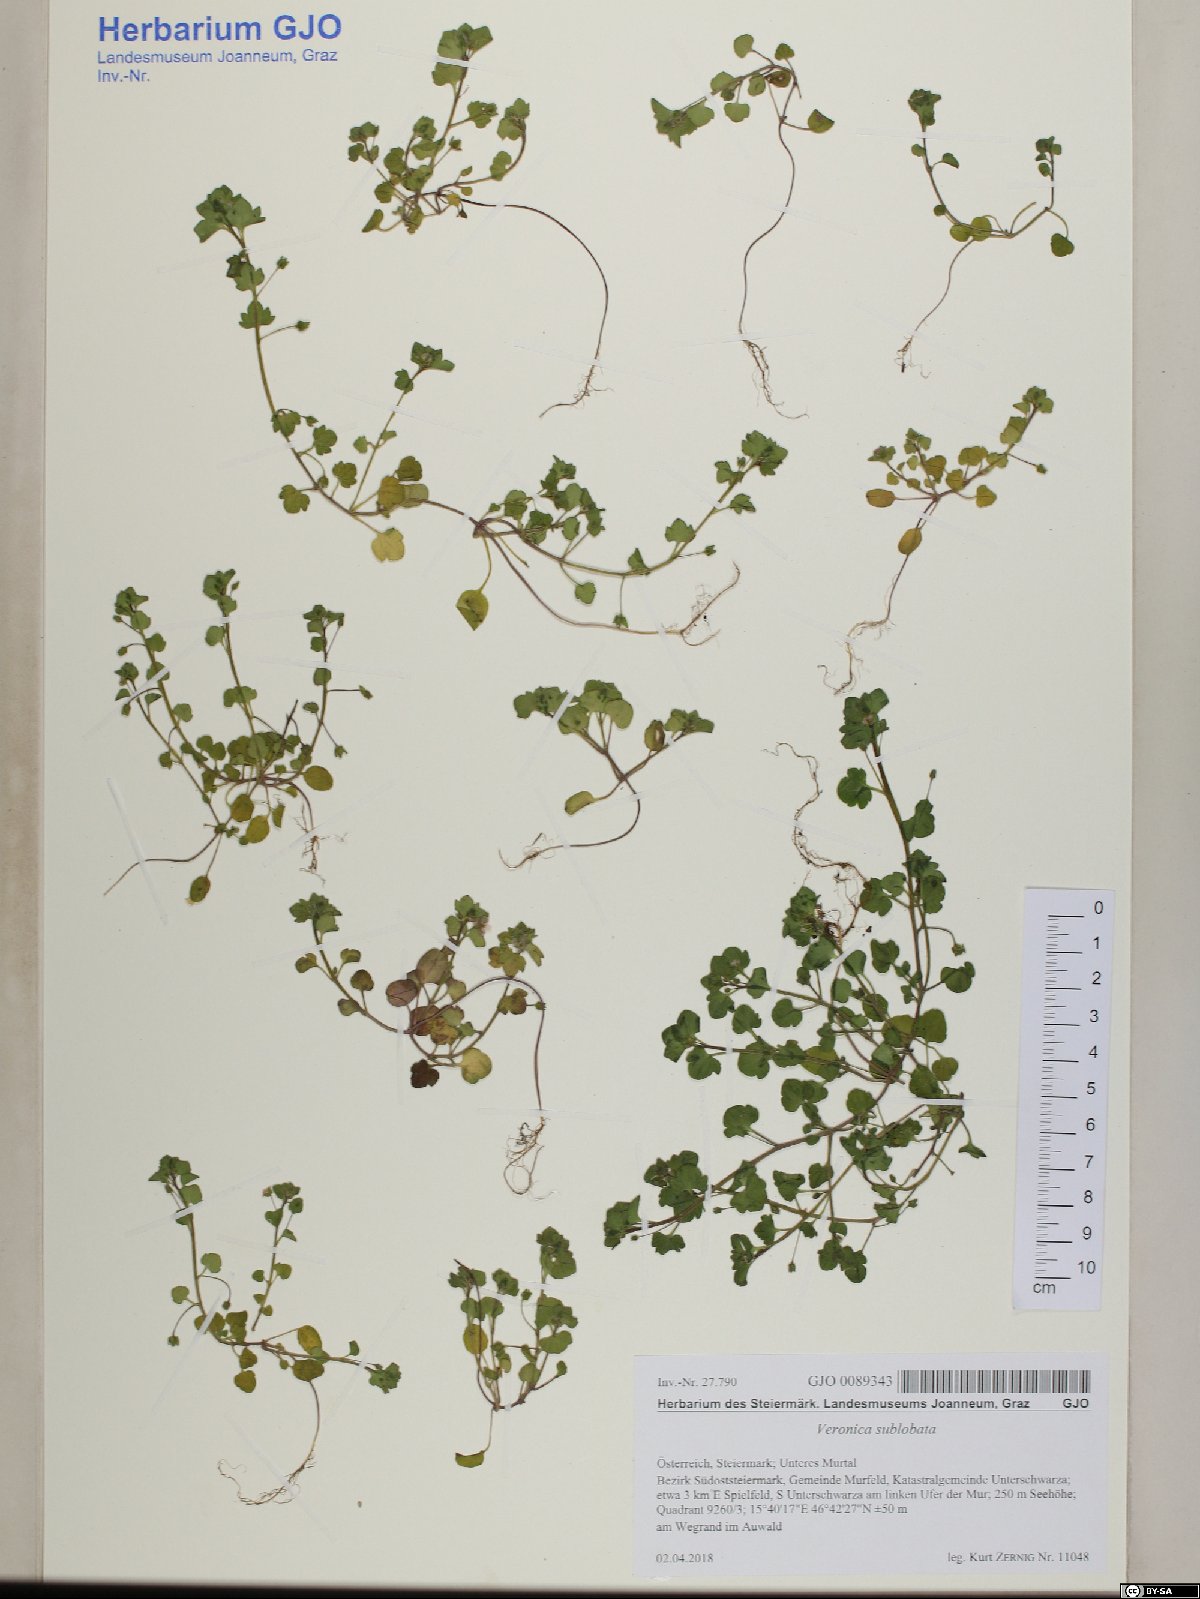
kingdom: Plantae
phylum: Tracheophyta
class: Magnoliopsida
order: Lamiales
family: Plantaginaceae
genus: Veronica
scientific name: Veronica sublobata
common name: False ivy-leaved speedwell
